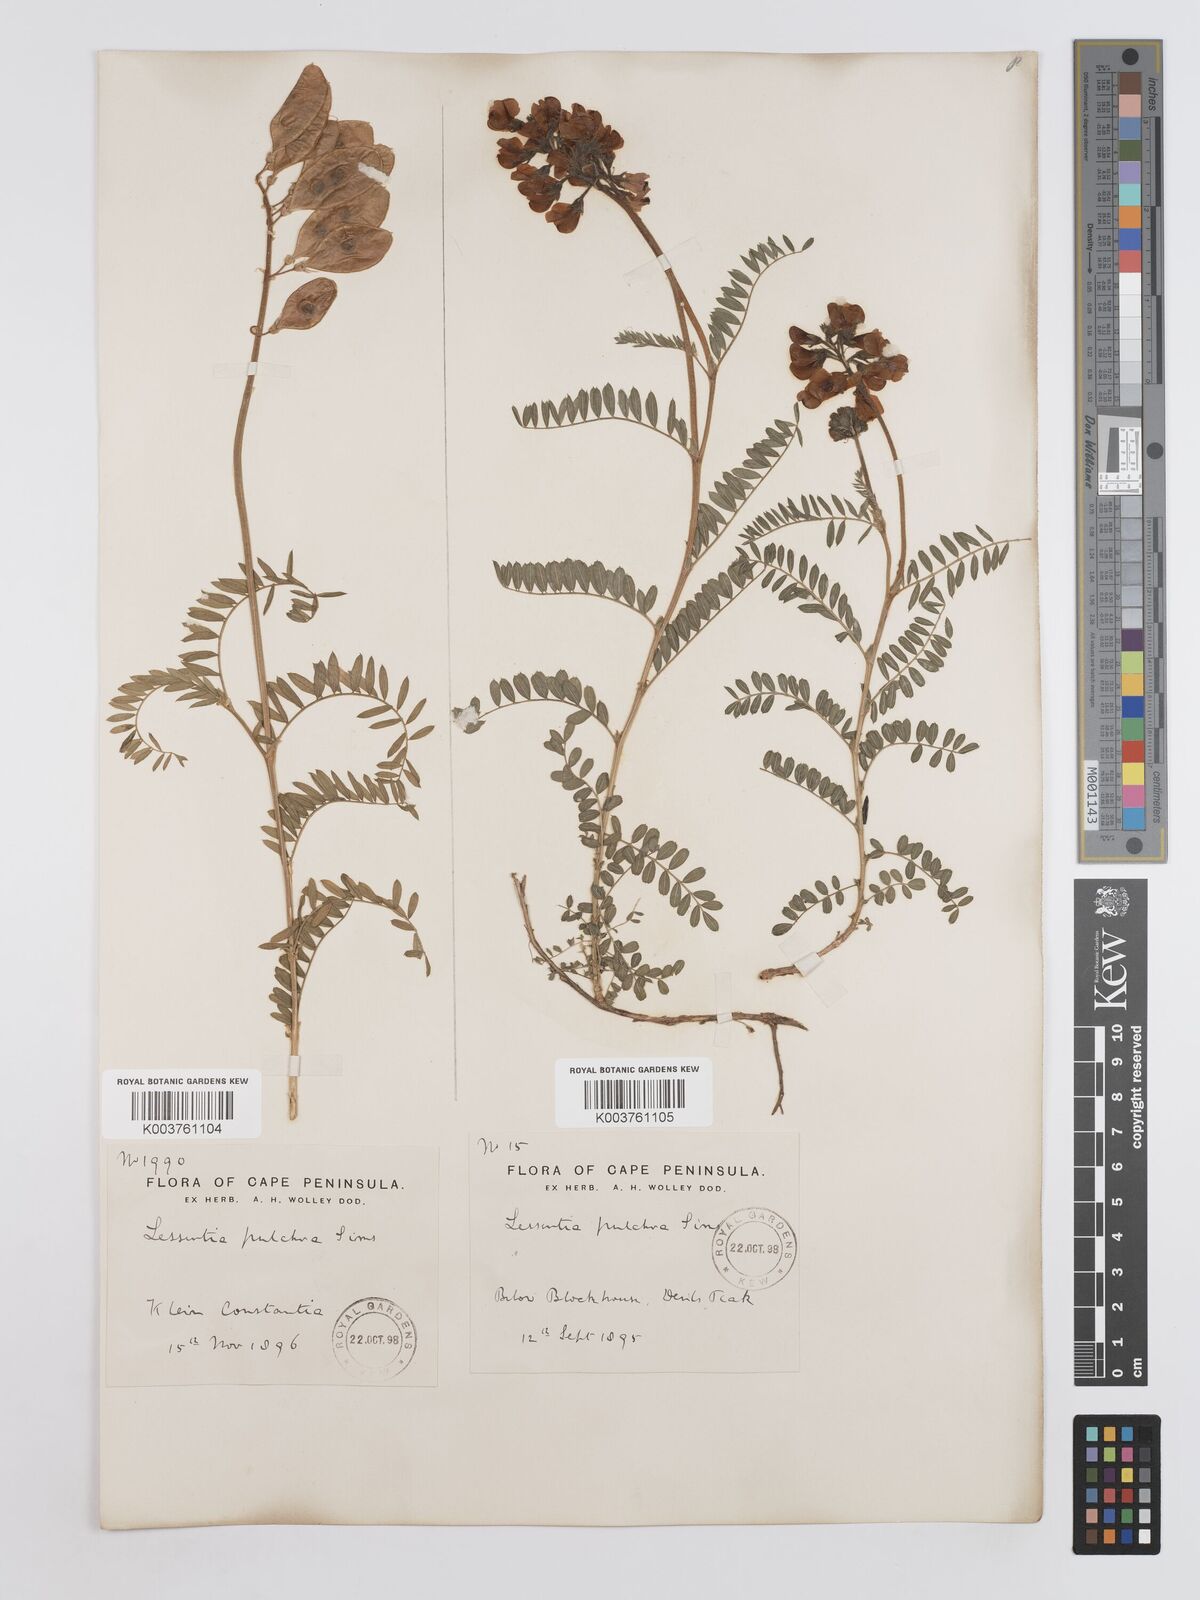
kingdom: Plantae
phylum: Tracheophyta
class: Magnoliopsida
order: Fabales
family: Fabaceae
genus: Lessertia
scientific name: Lessertia capensis
